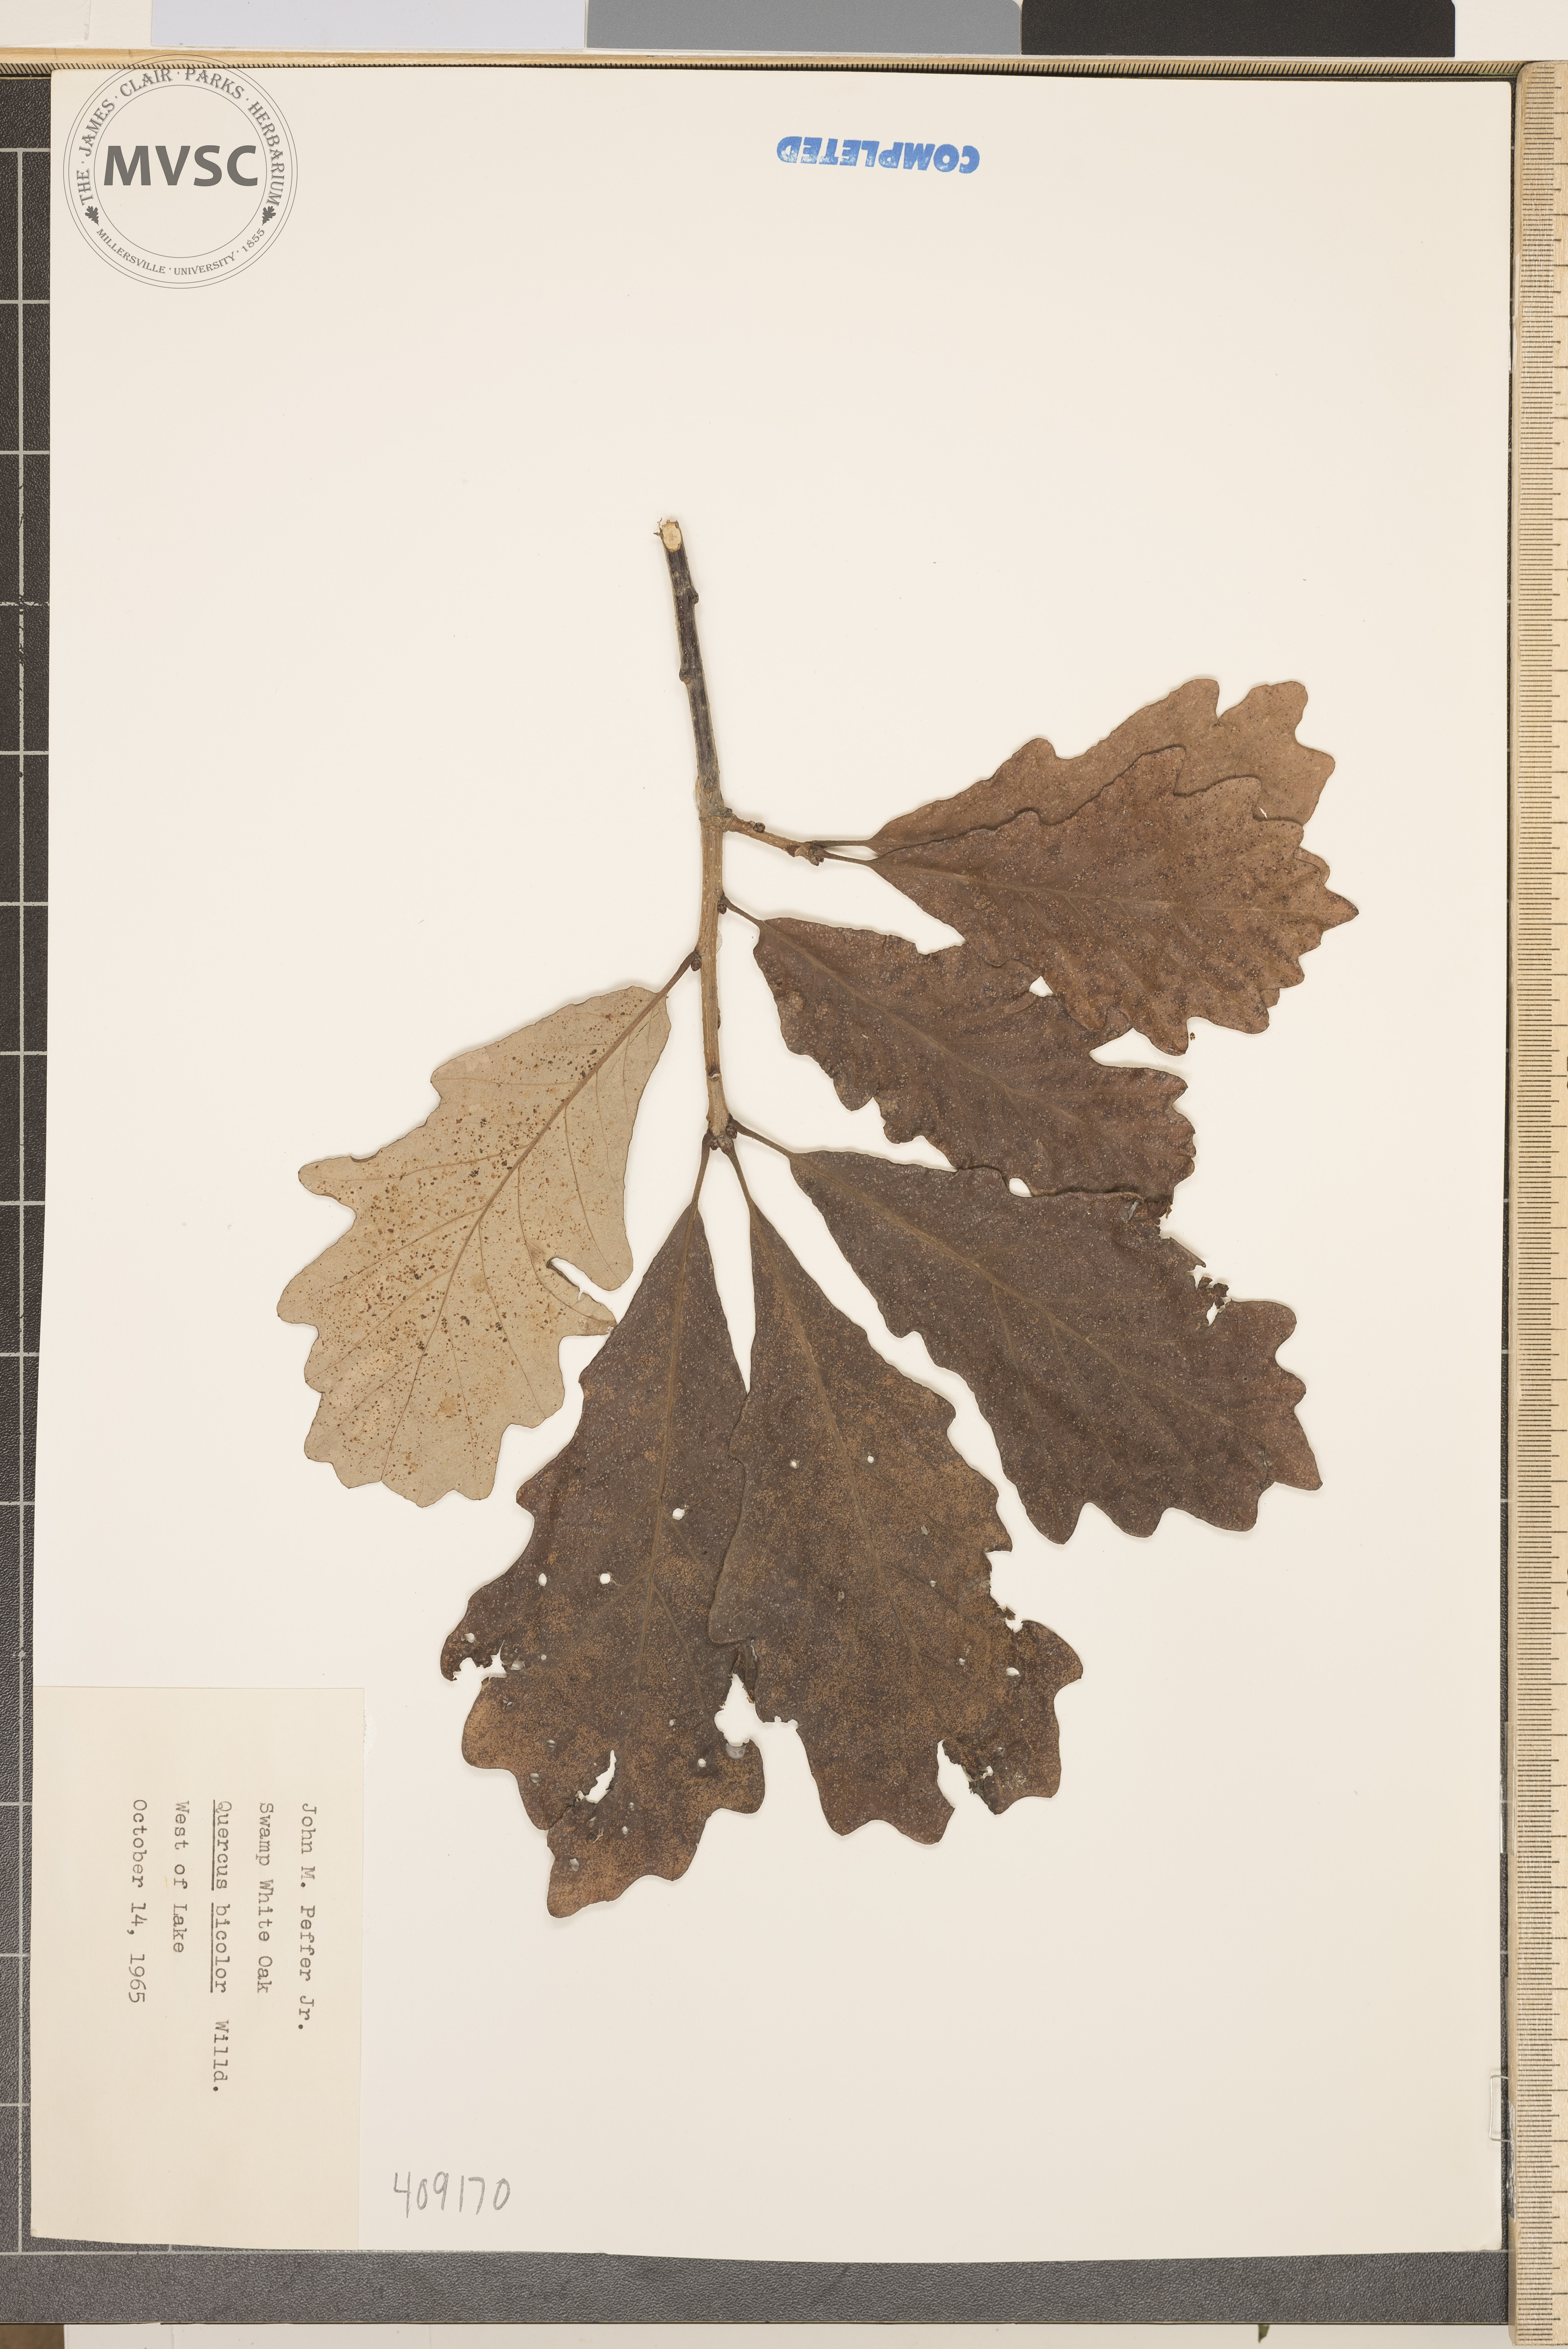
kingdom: Plantae
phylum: Tracheophyta
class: Magnoliopsida
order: Fagales
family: Fagaceae
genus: Quercus
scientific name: Quercus bicolor
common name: swamp white oak
